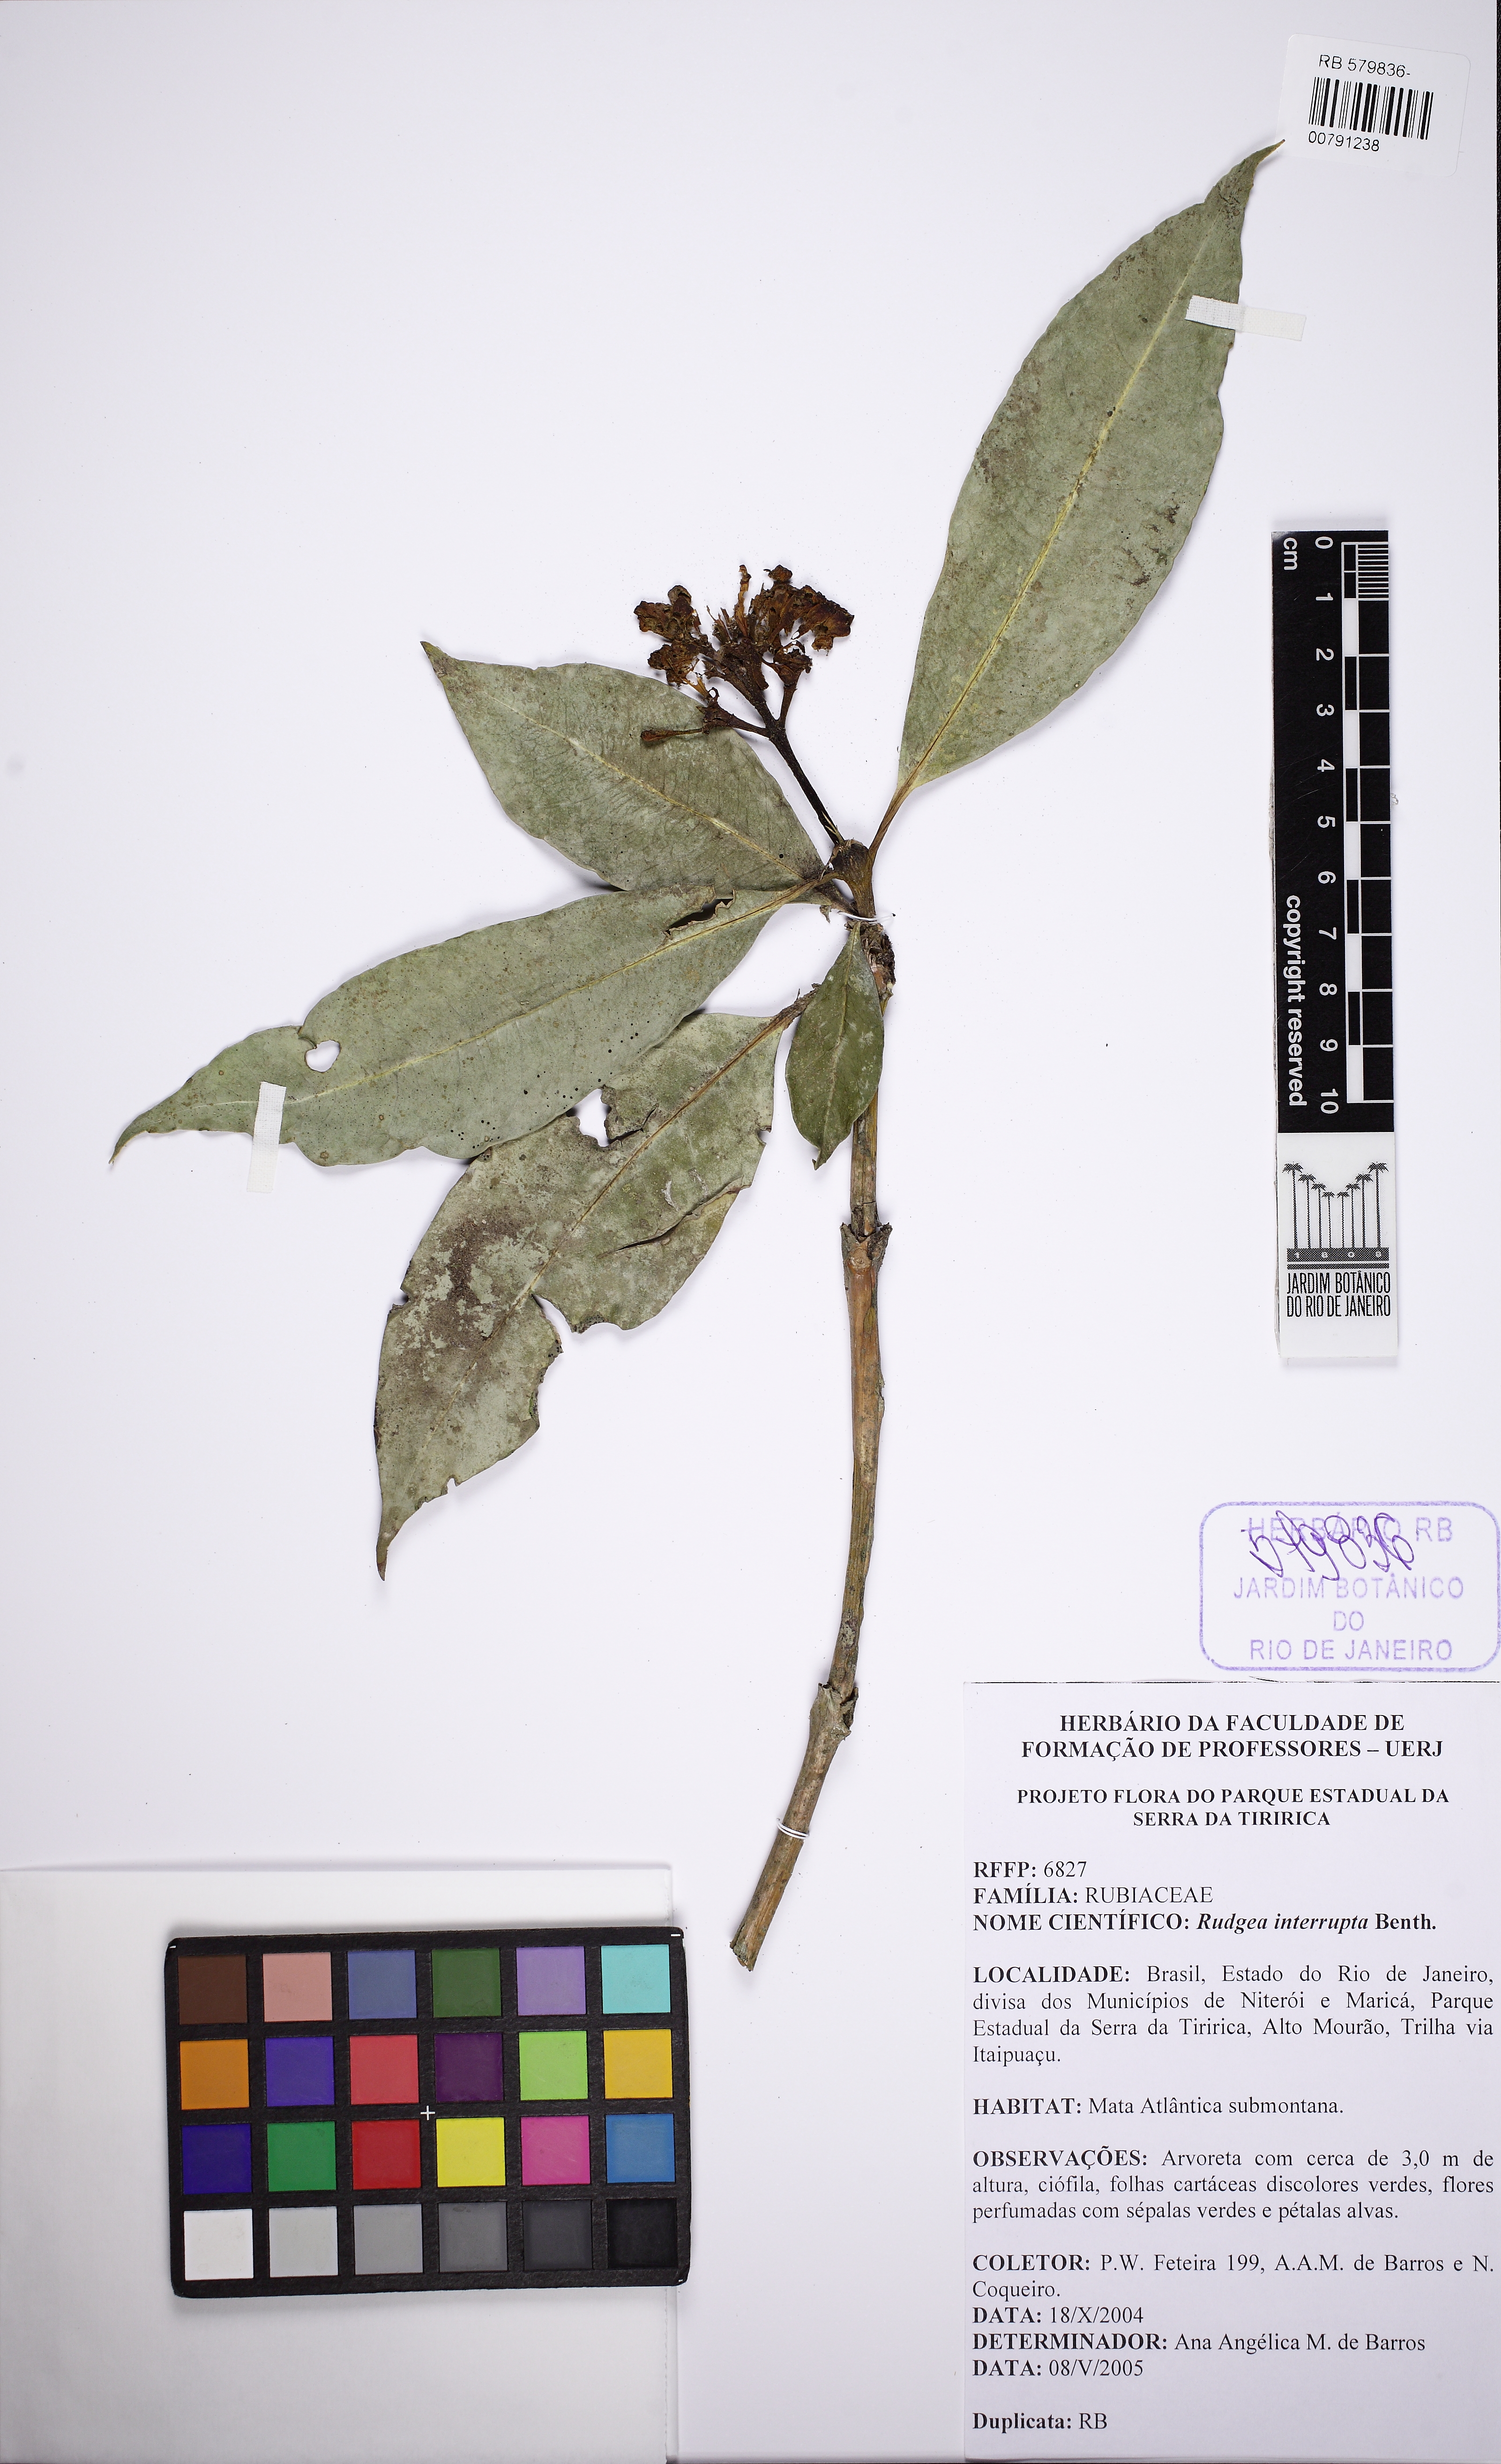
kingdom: Plantae
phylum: Tracheophyta
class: Magnoliopsida
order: Gentianales
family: Rubiaceae
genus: Rudgea
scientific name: Rudgea interrupta
